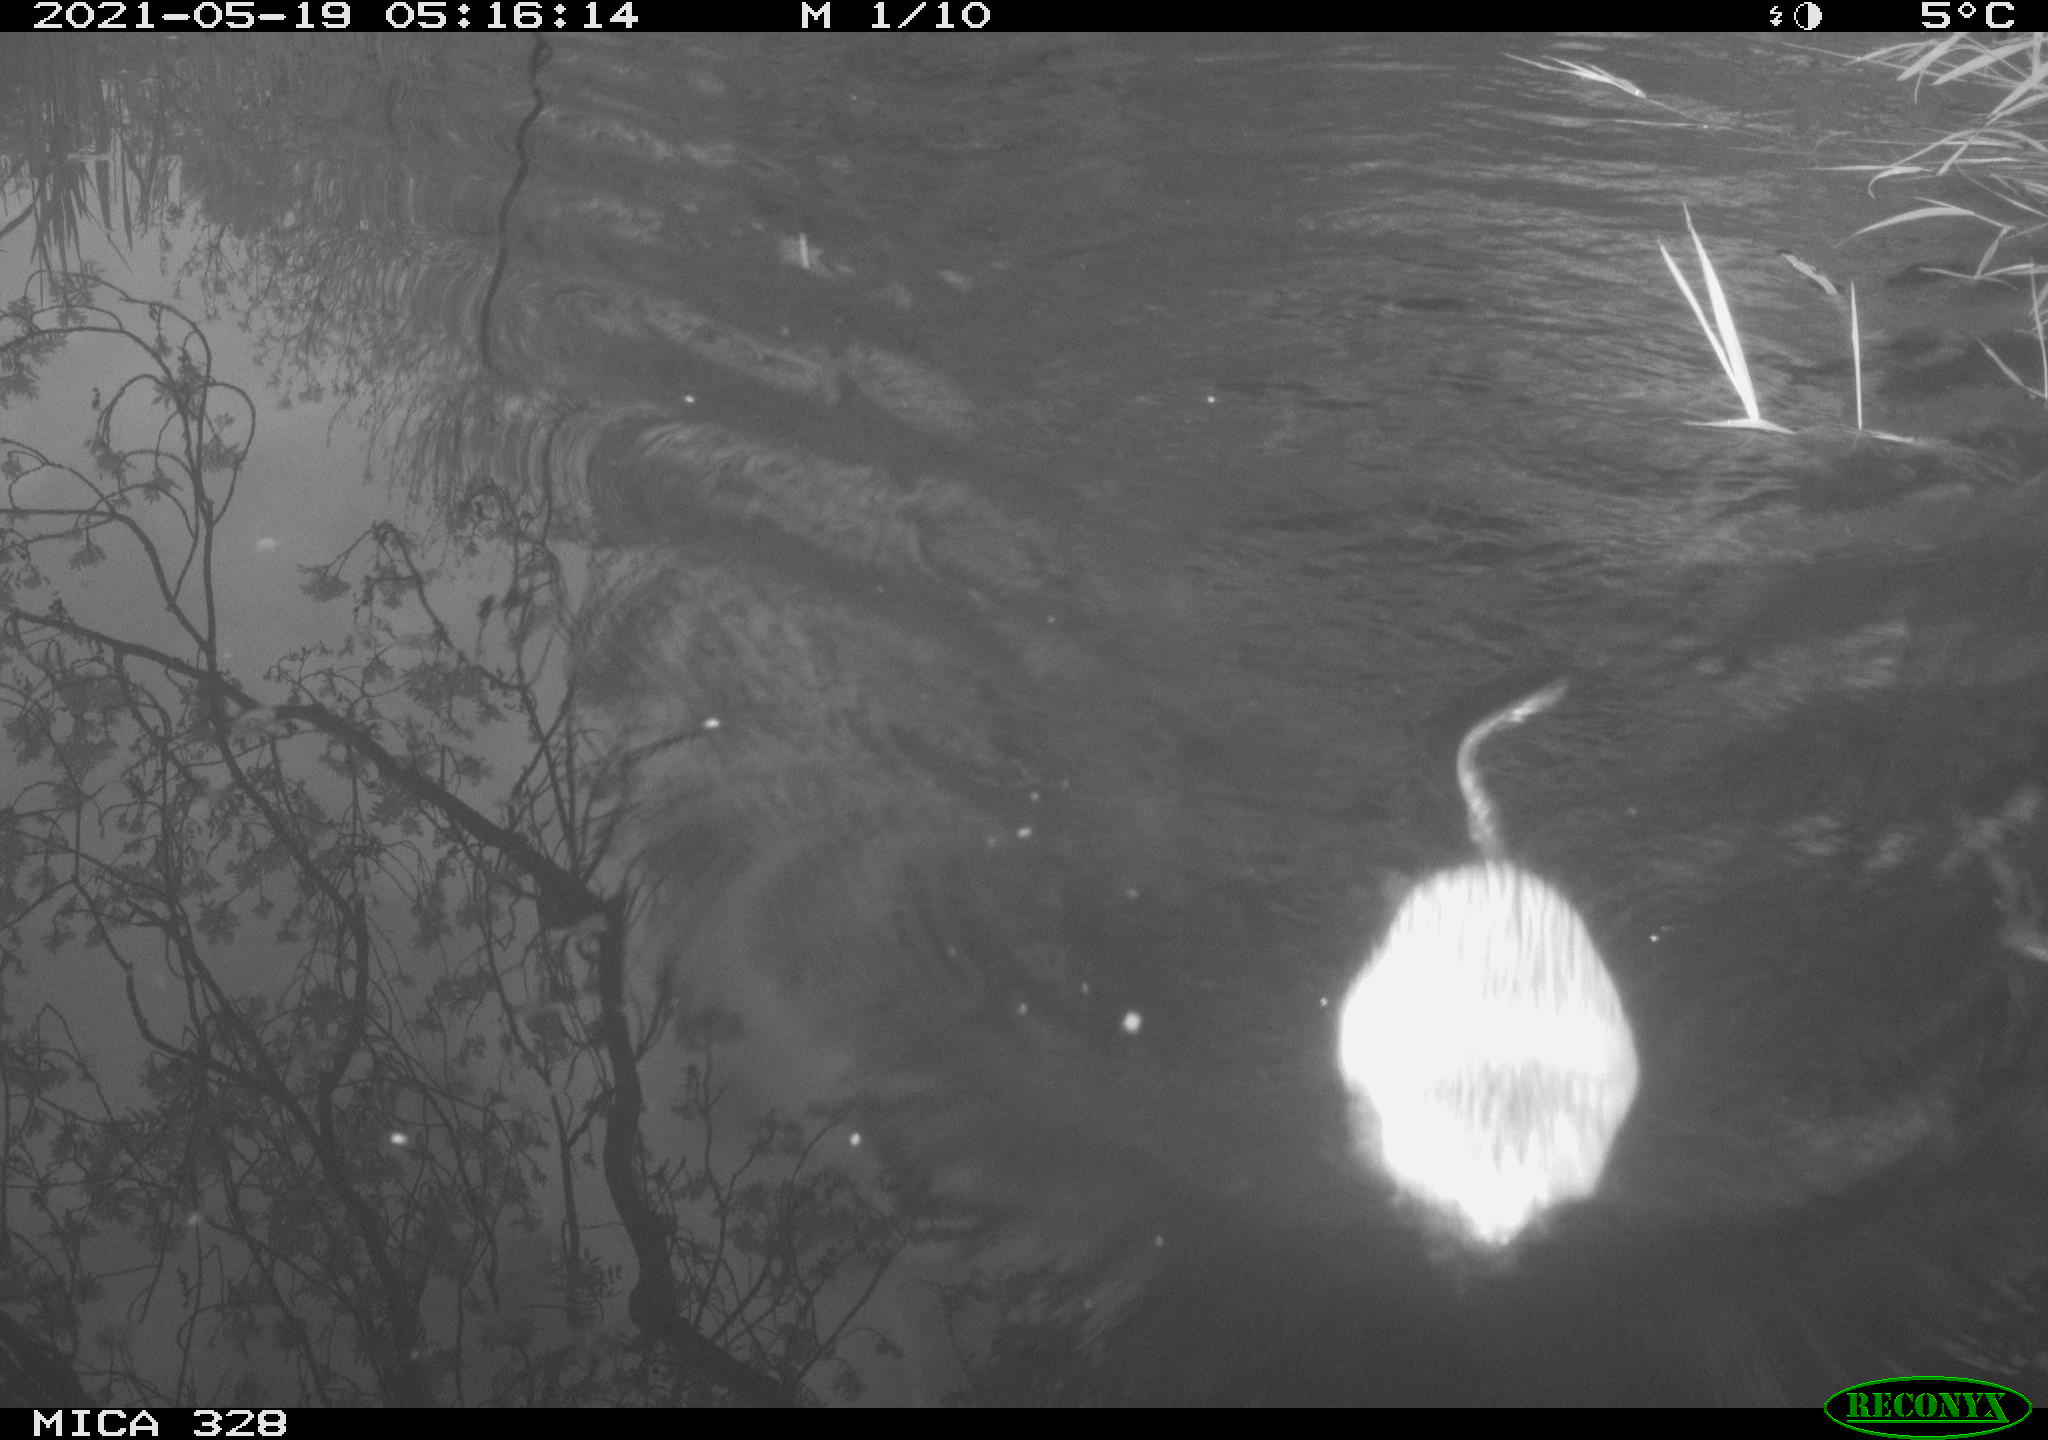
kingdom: Animalia
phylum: Chordata
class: Mammalia
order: Rodentia
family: Cricetidae
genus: Ondatra
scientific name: Ondatra zibethicus
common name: Muskrat
